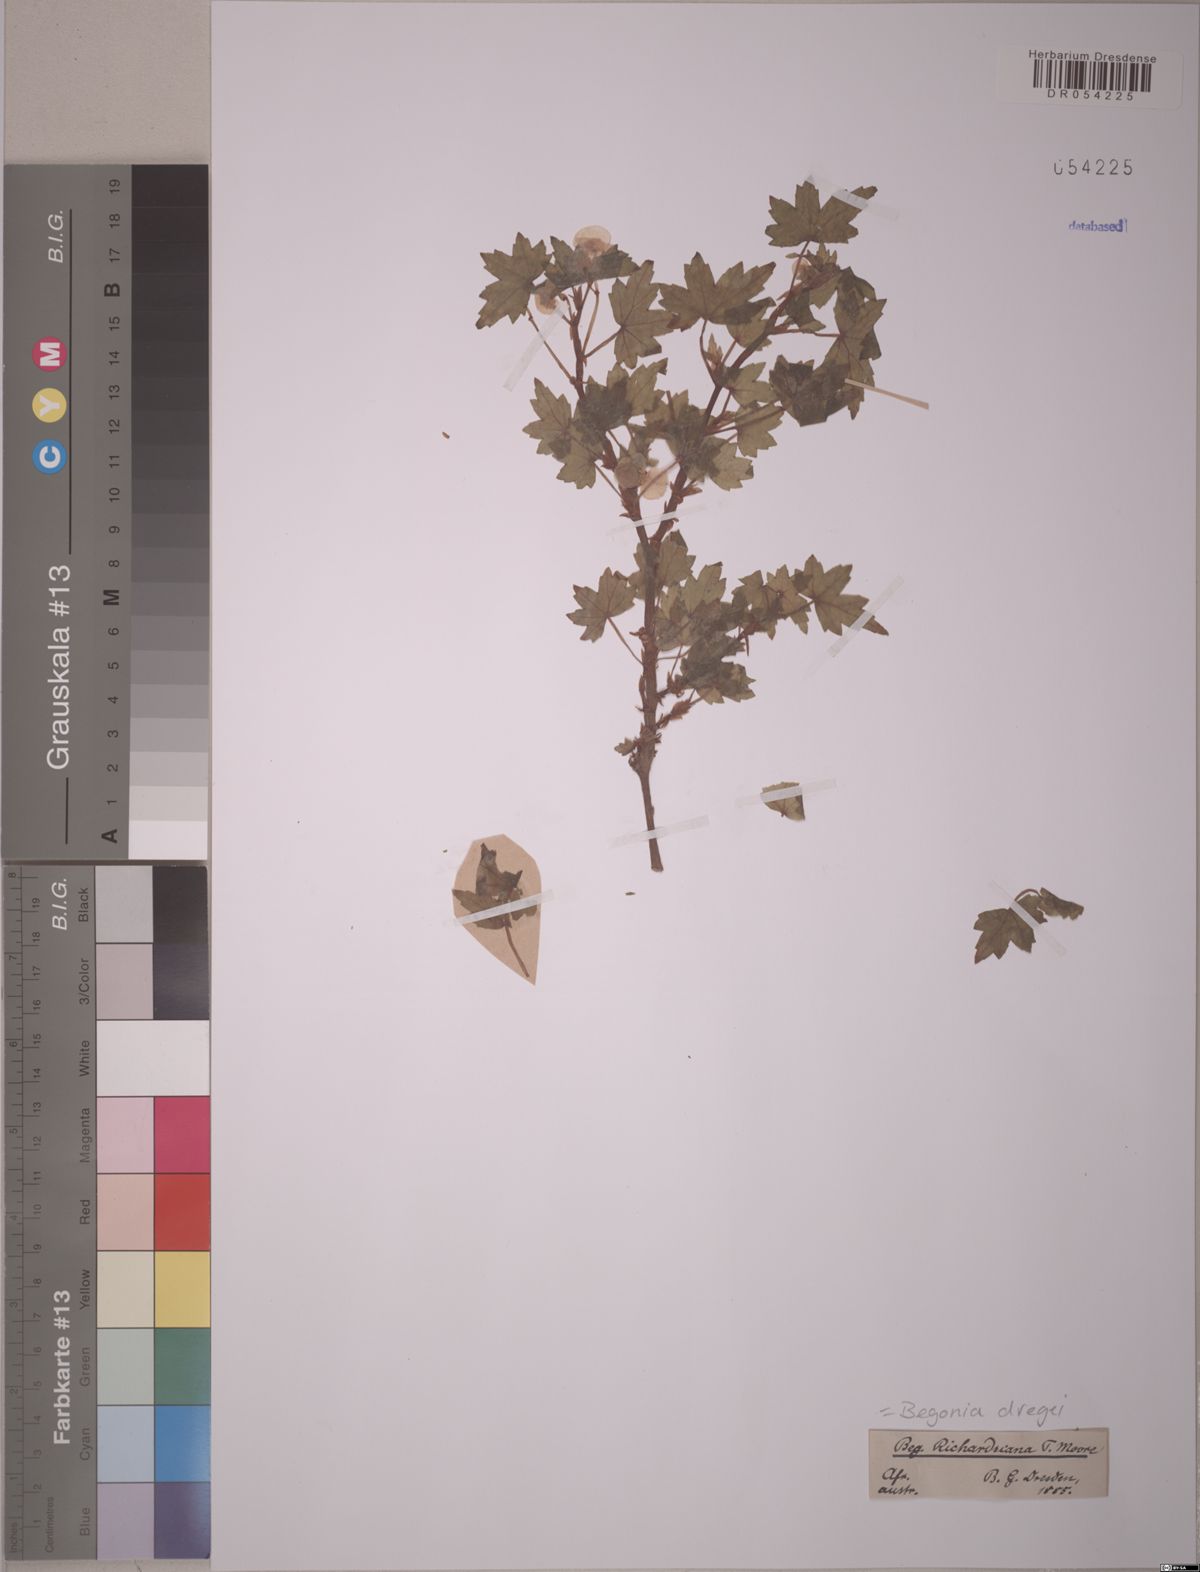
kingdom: Plantae
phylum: Tracheophyta
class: Magnoliopsida
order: Cucurbitales
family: Begoniaceae
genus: Begonia
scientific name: Begonia dregei
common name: Grape-leaf begonia
